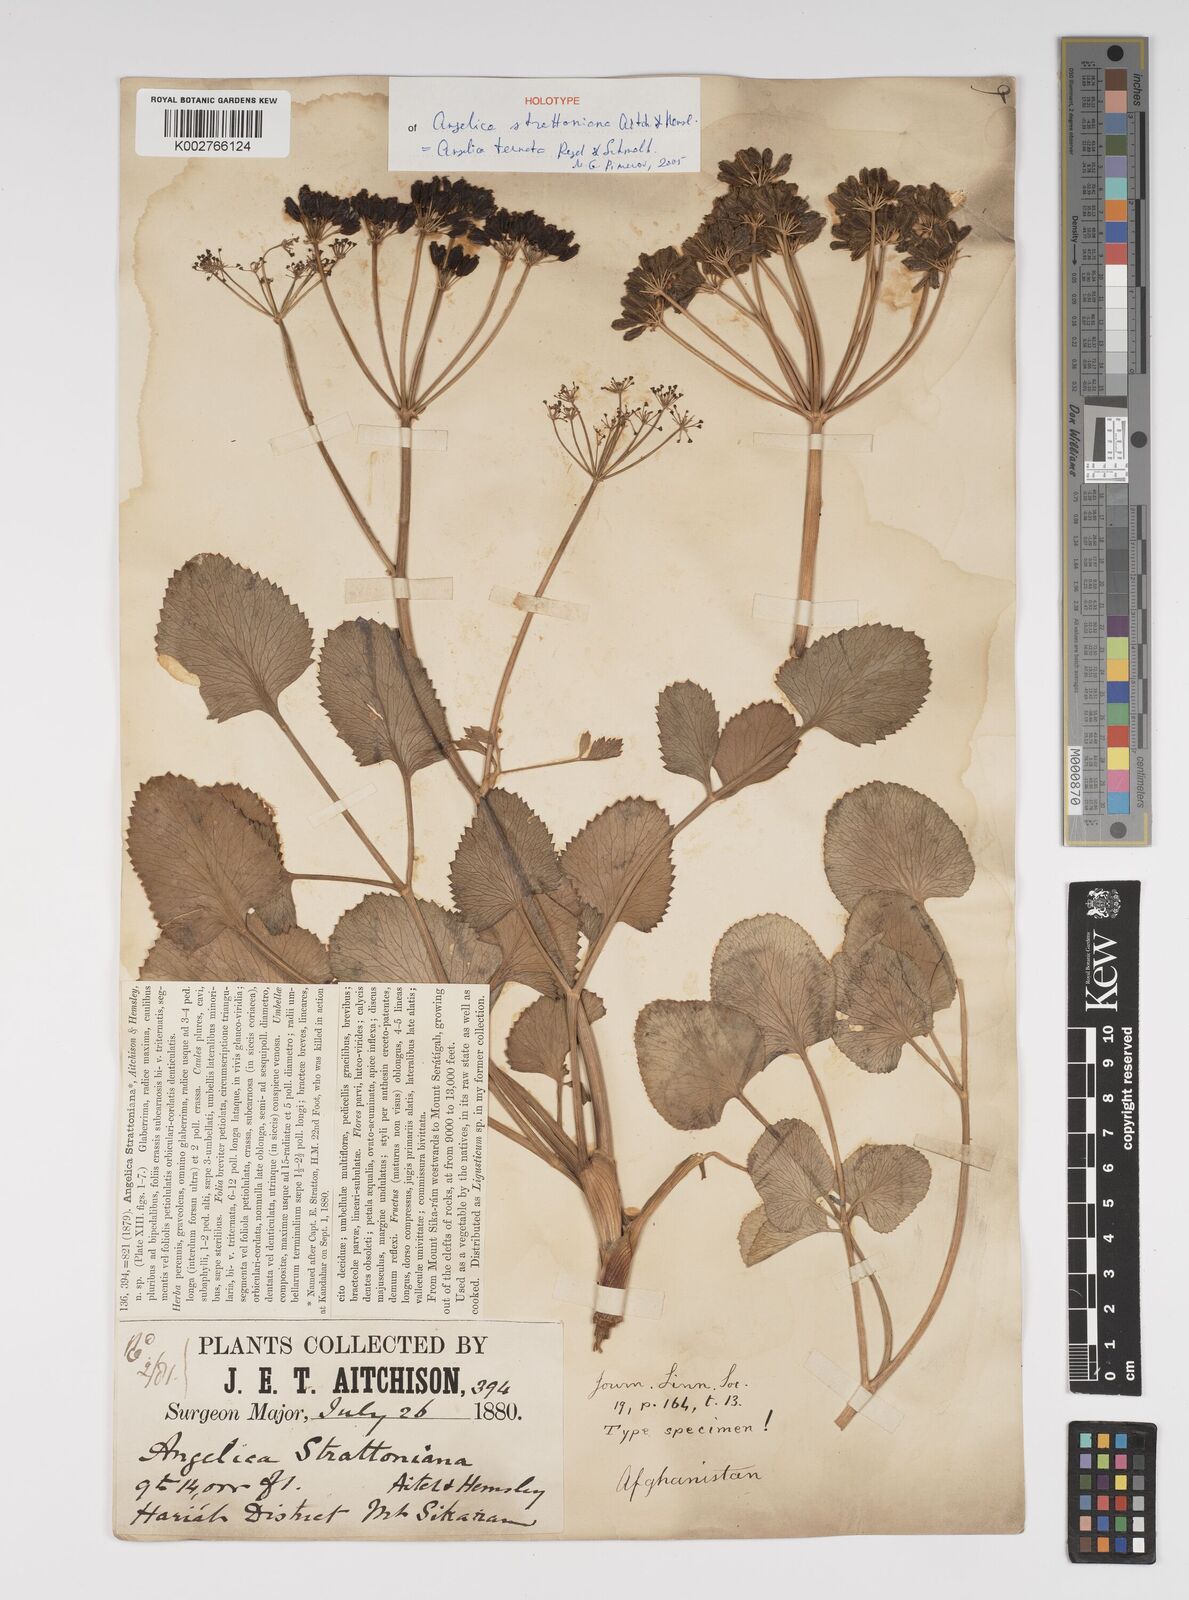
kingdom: Plantae
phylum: Tracheophyta
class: Magnoliopsida
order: Apiales
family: Apiaceae
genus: Angelica
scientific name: Angelica ternata
